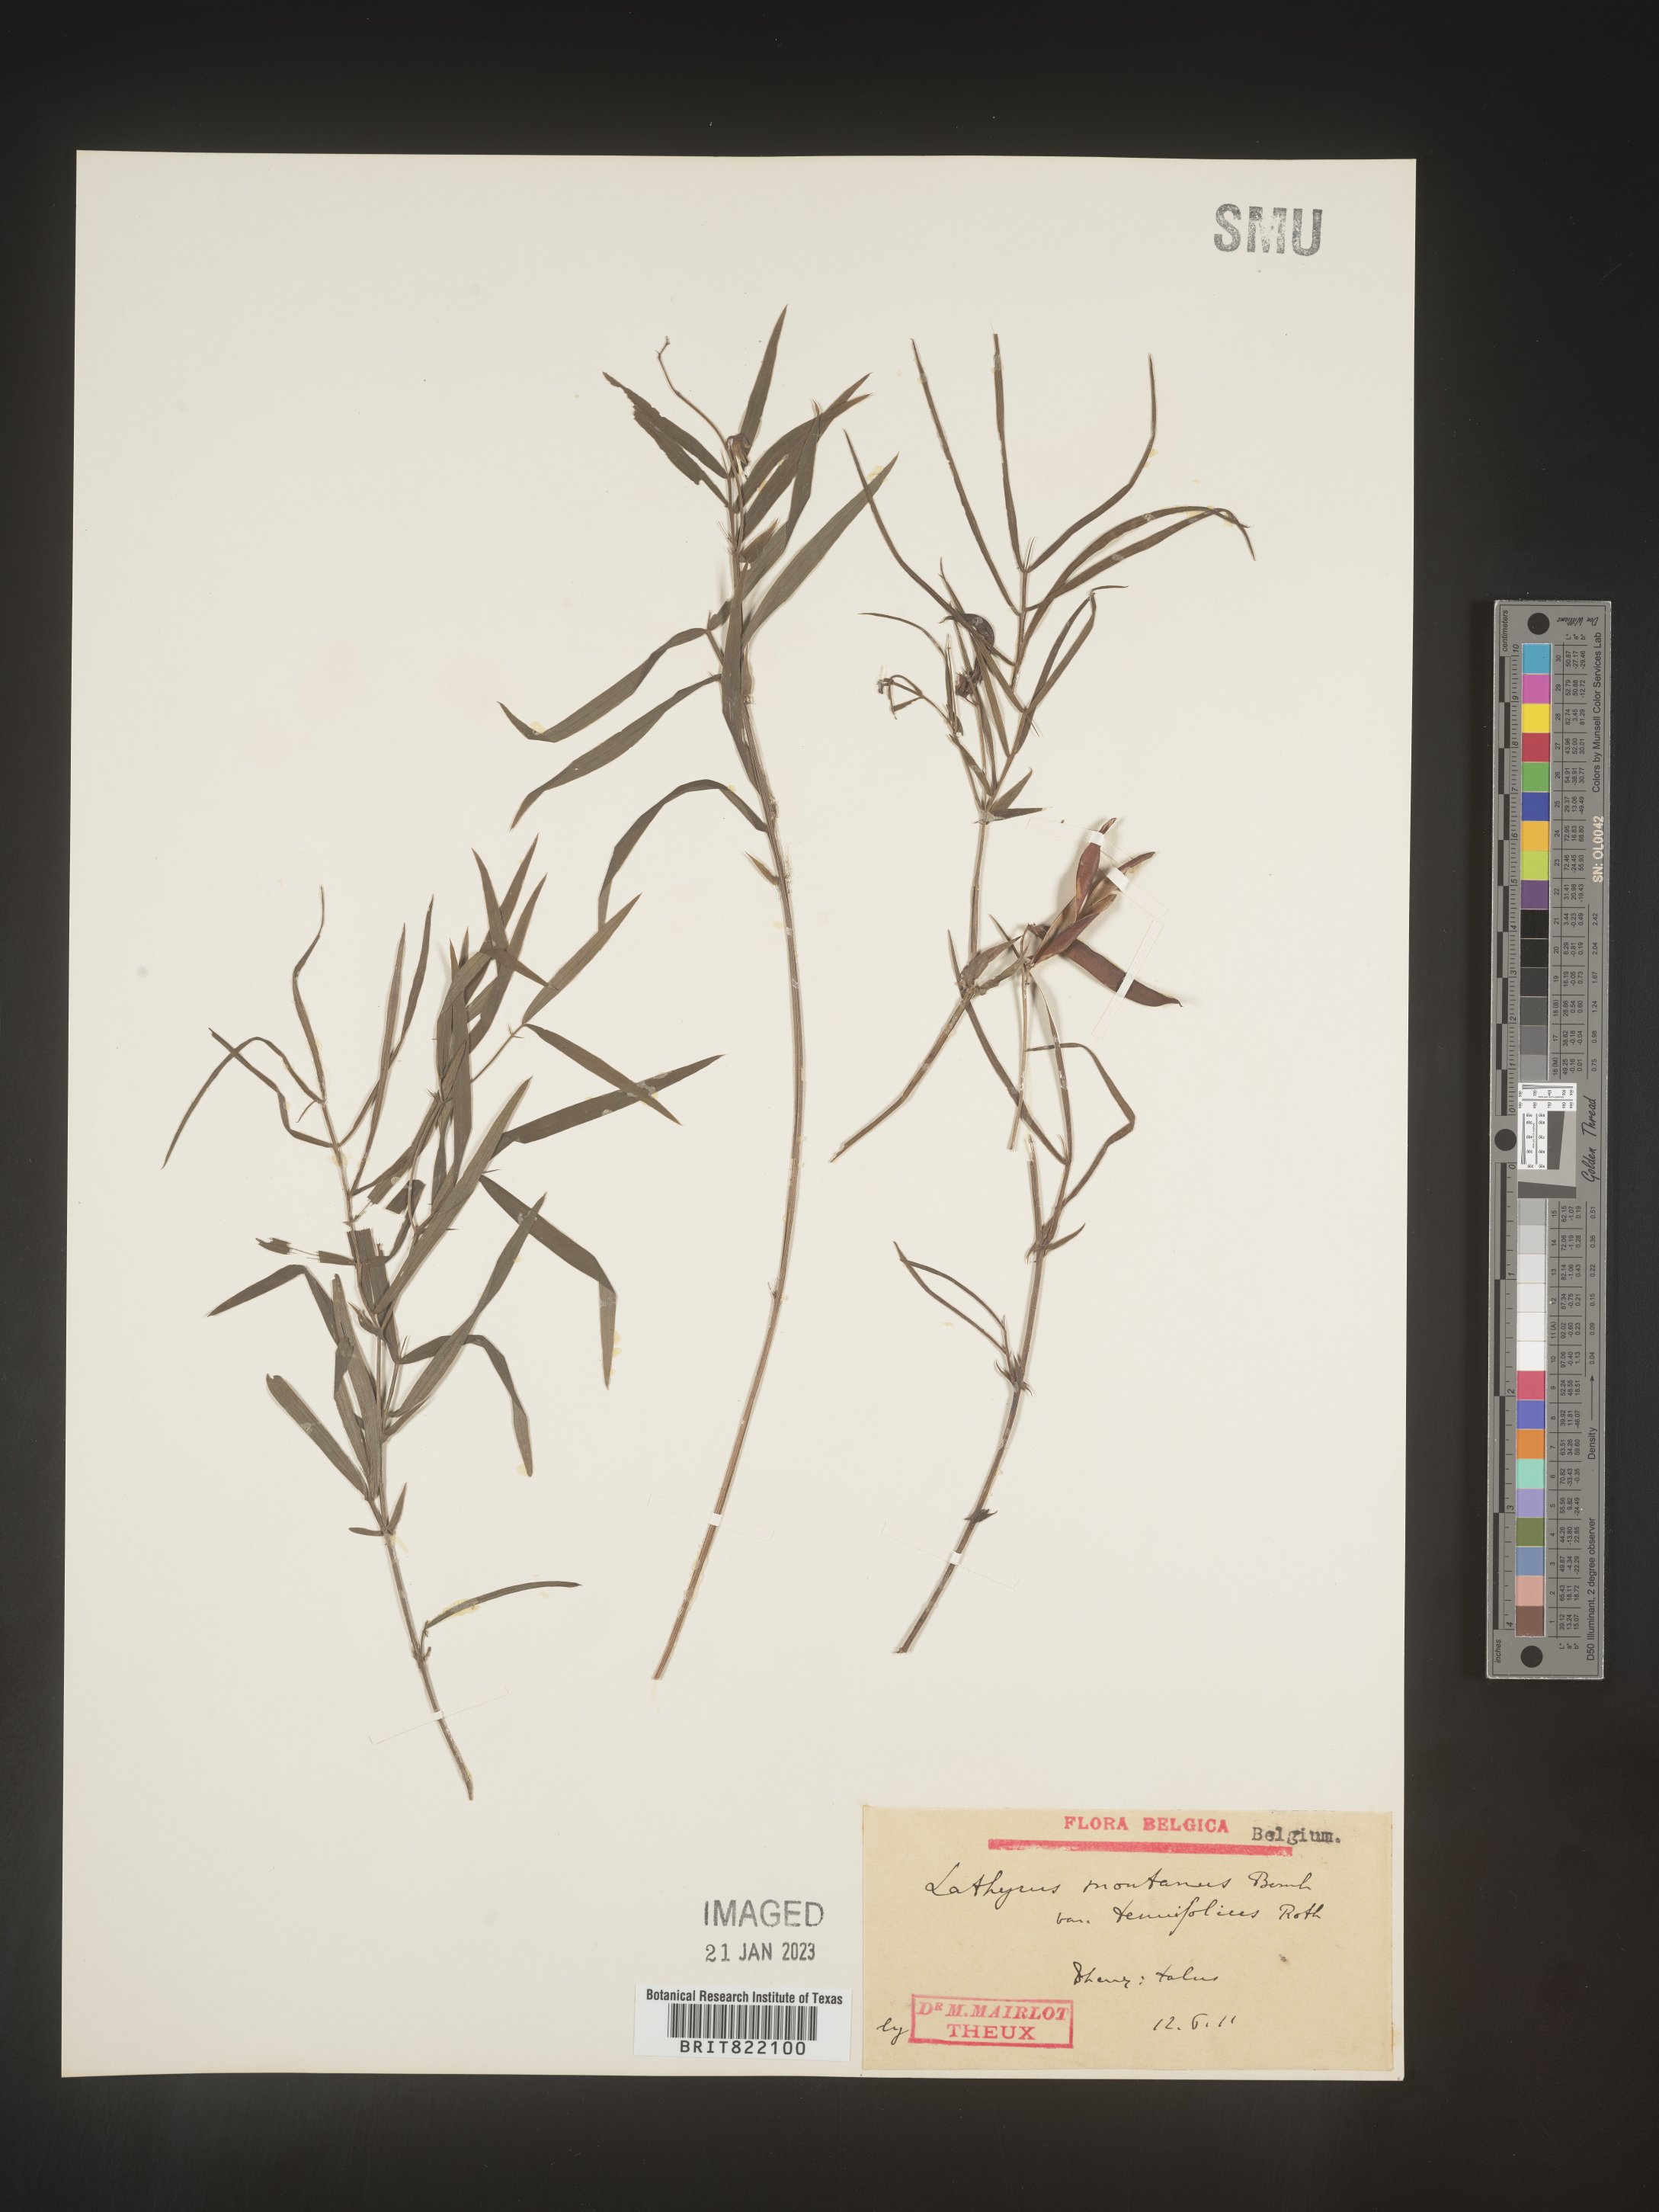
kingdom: Plantae
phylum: Tracheophyta
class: Magnoliopsida
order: Fabales
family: Fabaceae
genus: Lathyrus
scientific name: Lathyrus
